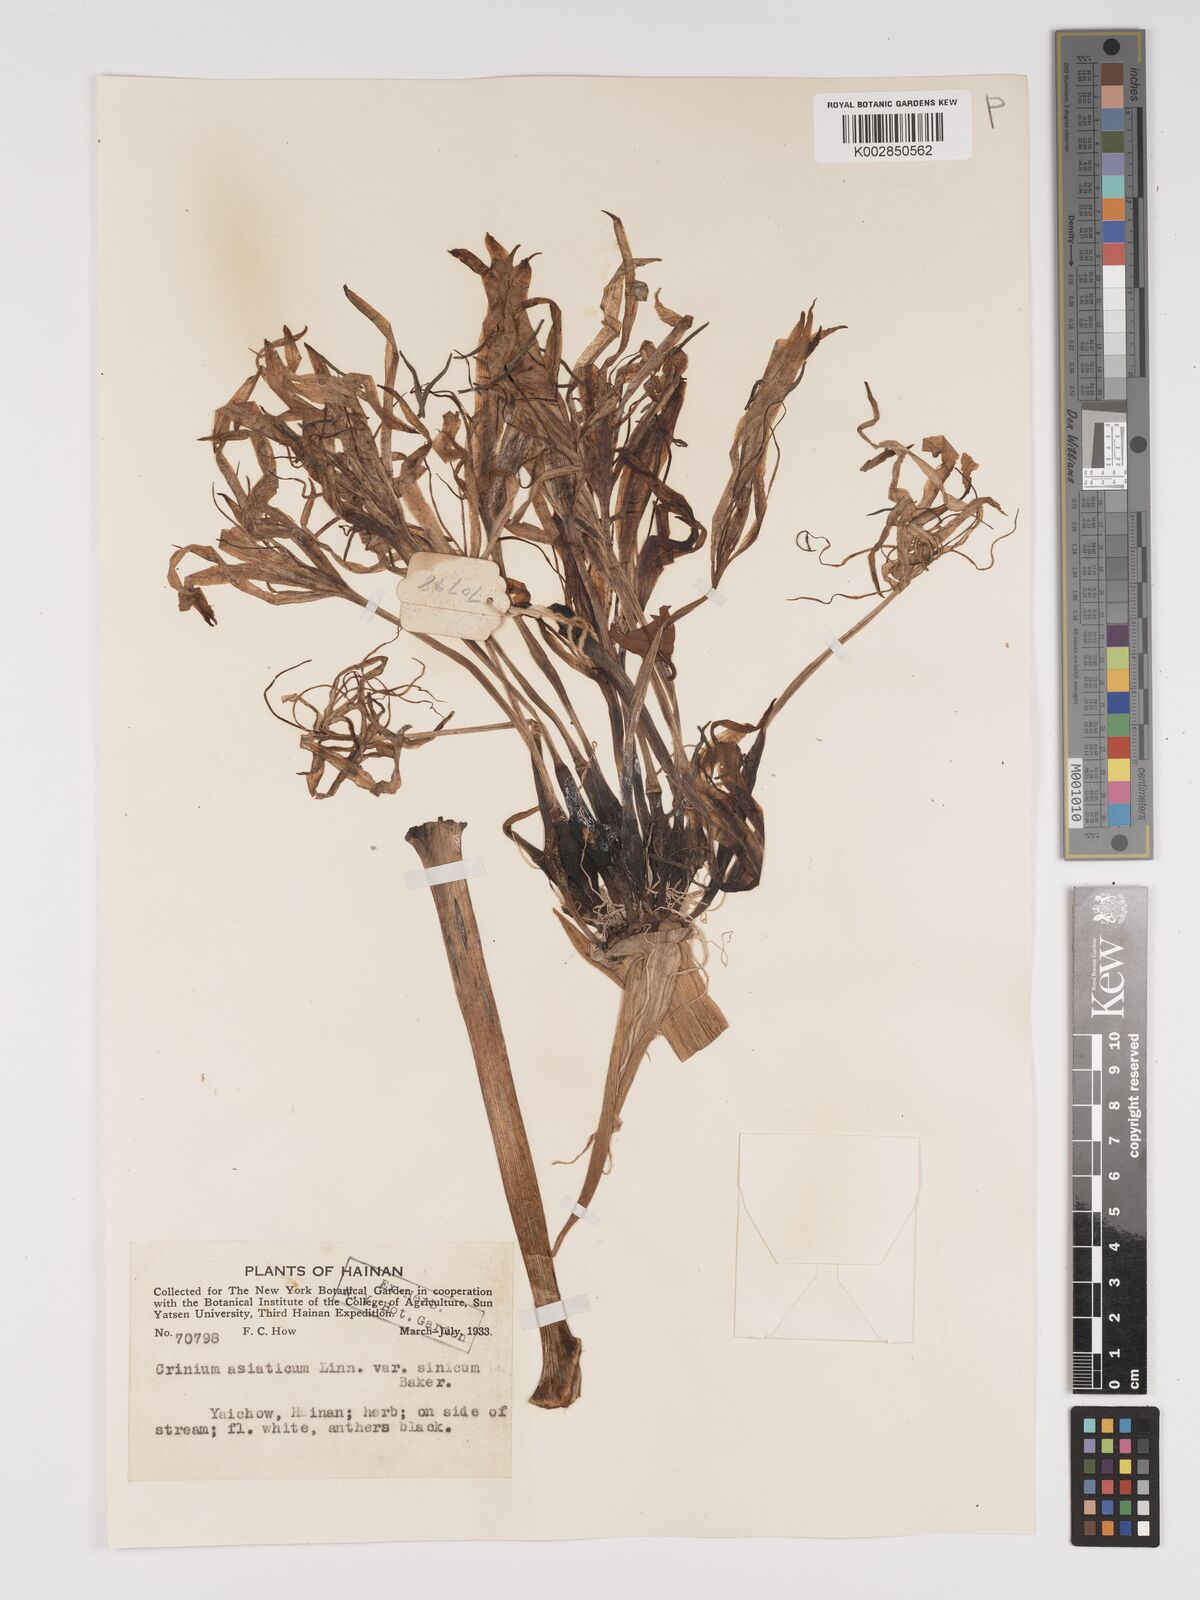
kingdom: Plantae
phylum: Tracheophyta
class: Liliopsida
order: Asparagales
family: Amaryllidaceae
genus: Crinum
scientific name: Crinum asiaticum
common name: Poisonbulb
